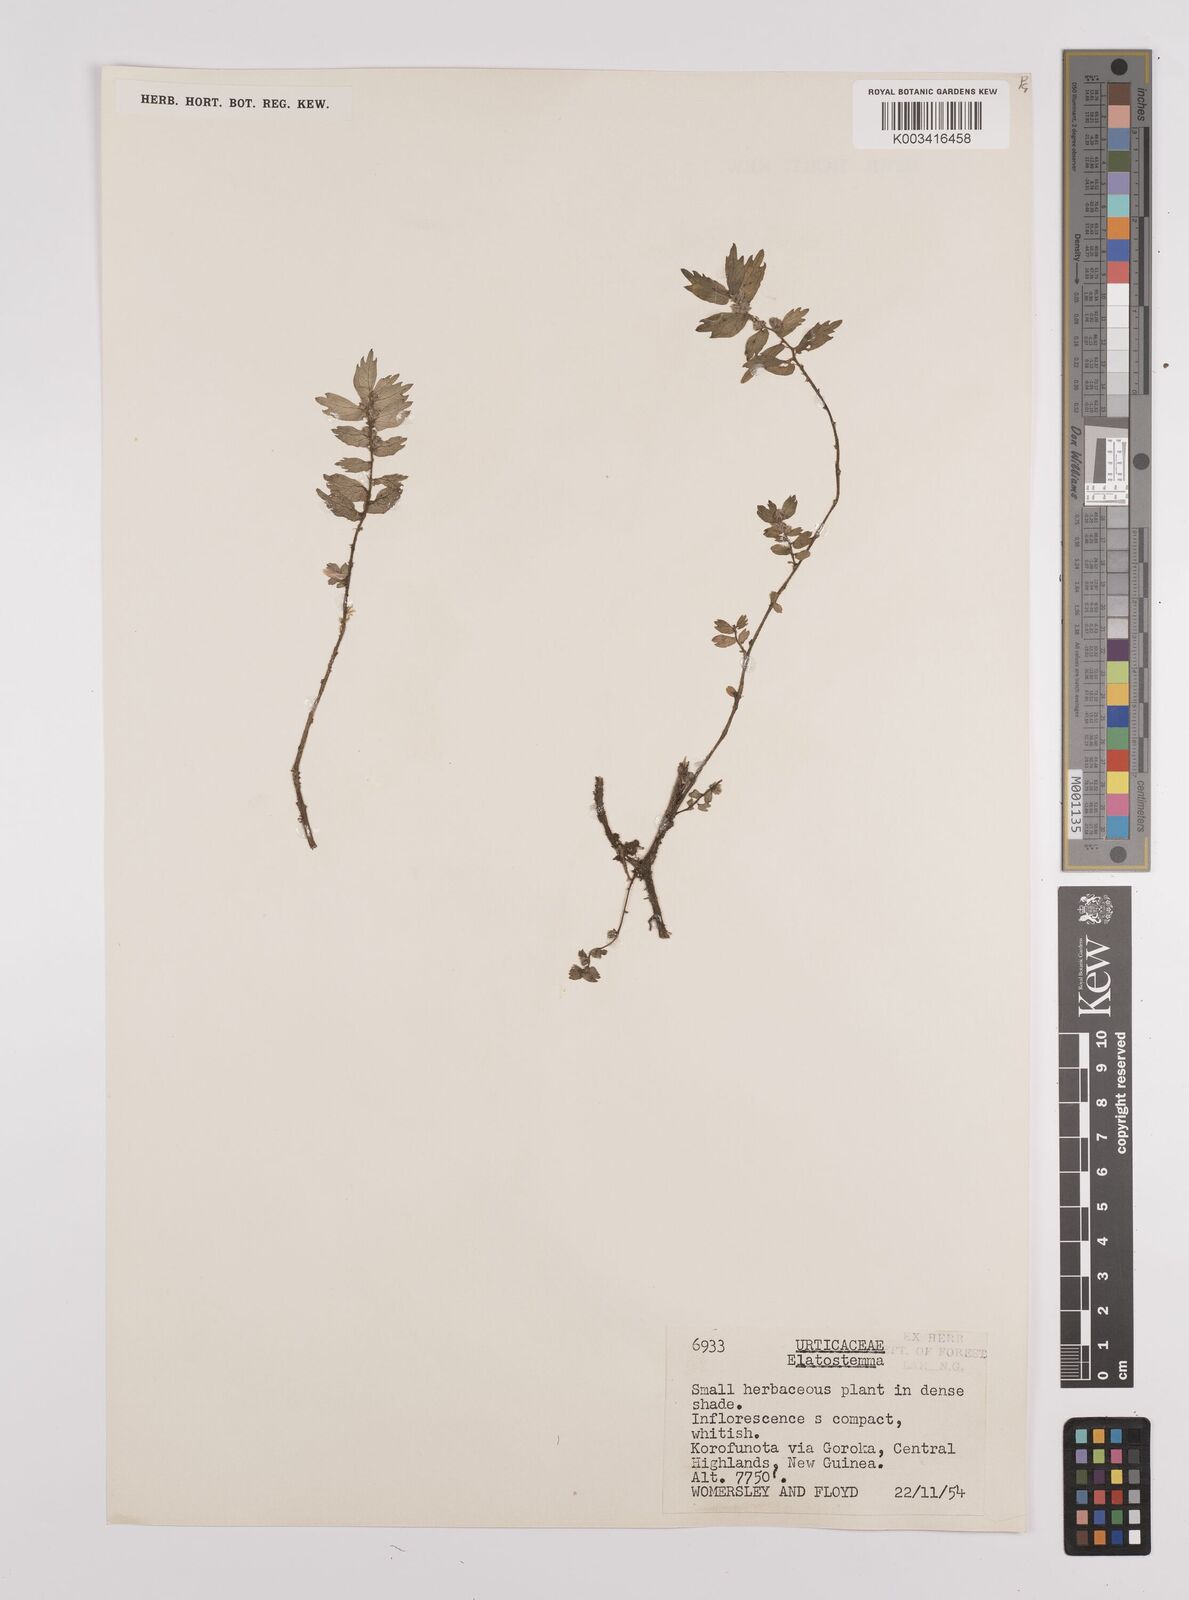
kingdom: Plantae
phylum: Tracheophyta
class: Magnoliopsida
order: Rosales
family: Urticaceae
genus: Elatostema
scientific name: Elatostema
